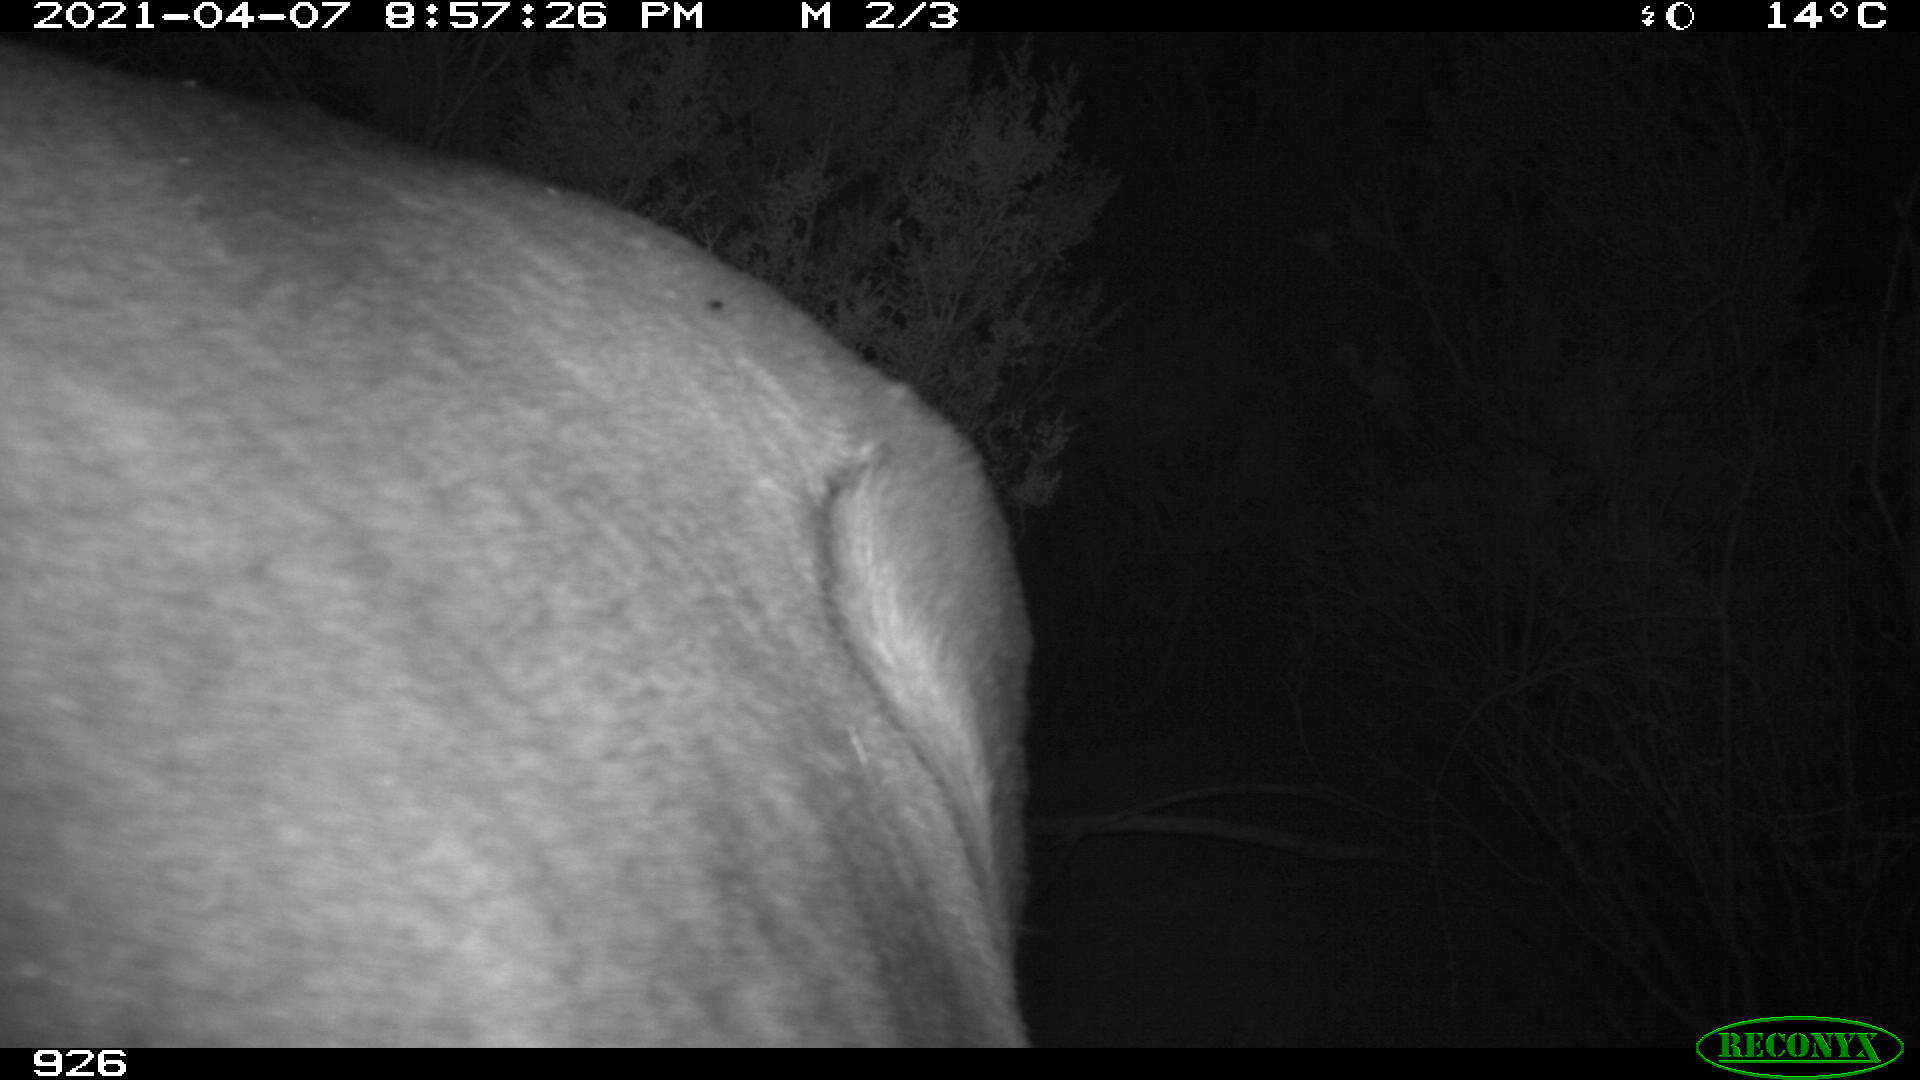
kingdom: Animalia
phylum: Chordata
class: Mammalia
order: Perissodactyla
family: Equidae
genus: Equus
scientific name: Equus caballus
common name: Horse
